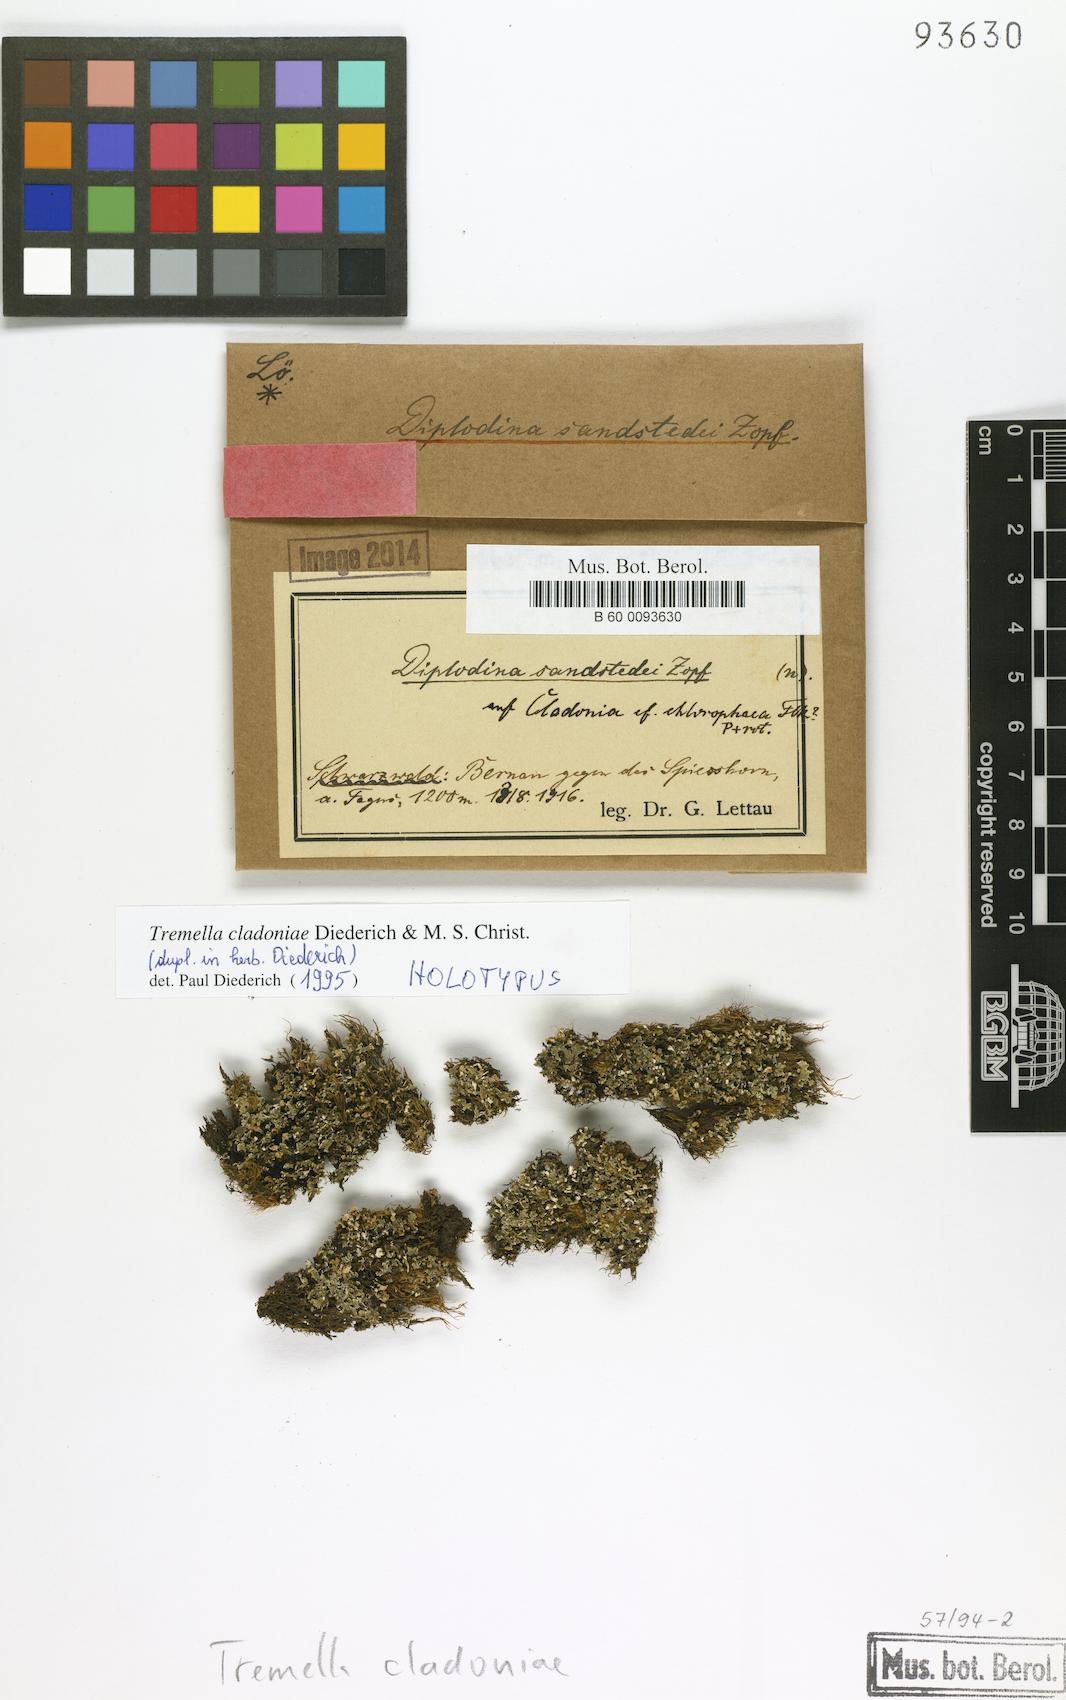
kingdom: Fungi
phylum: Basidiomycota
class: Tremellomycetes
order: Tremellales
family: Tremellaceae
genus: Tremella
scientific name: Tremella cladoniae
